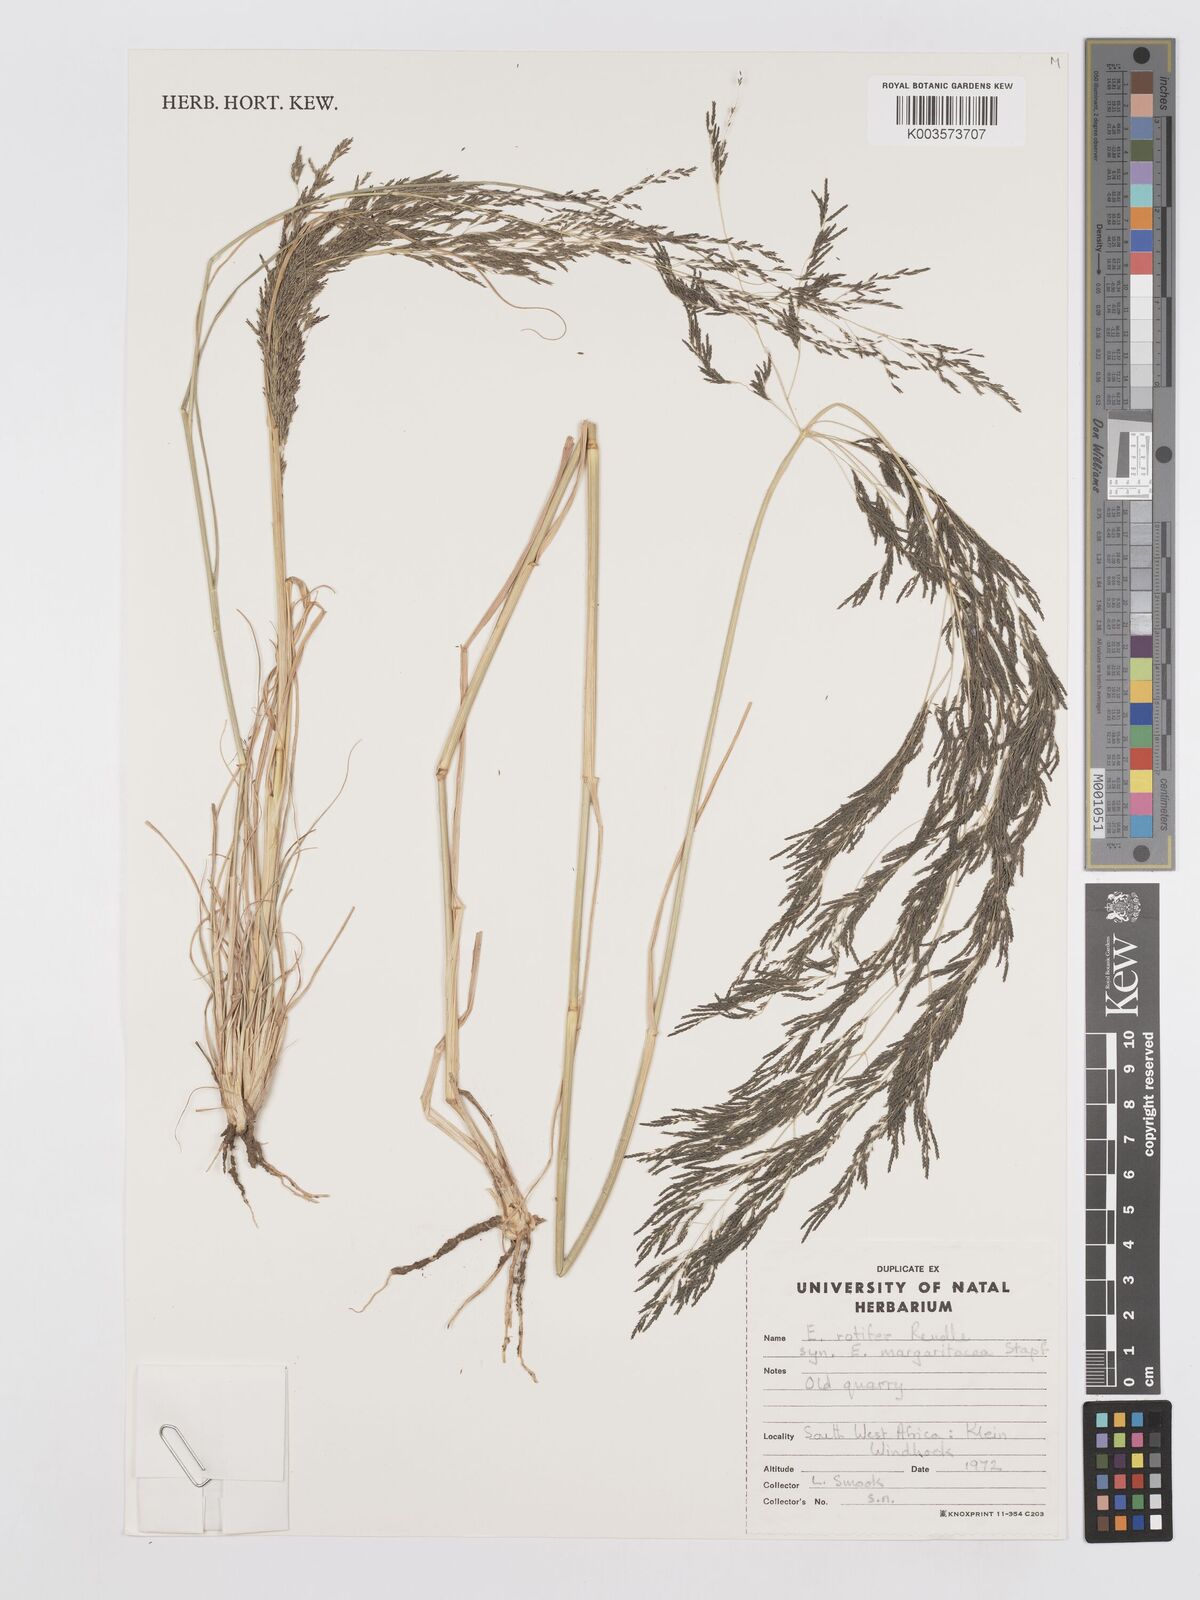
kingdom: Plantae
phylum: Tracheophyta
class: Liliopsida
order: Poales
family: Poaceae
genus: Eragrostis
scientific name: Eragrostis rotifer
